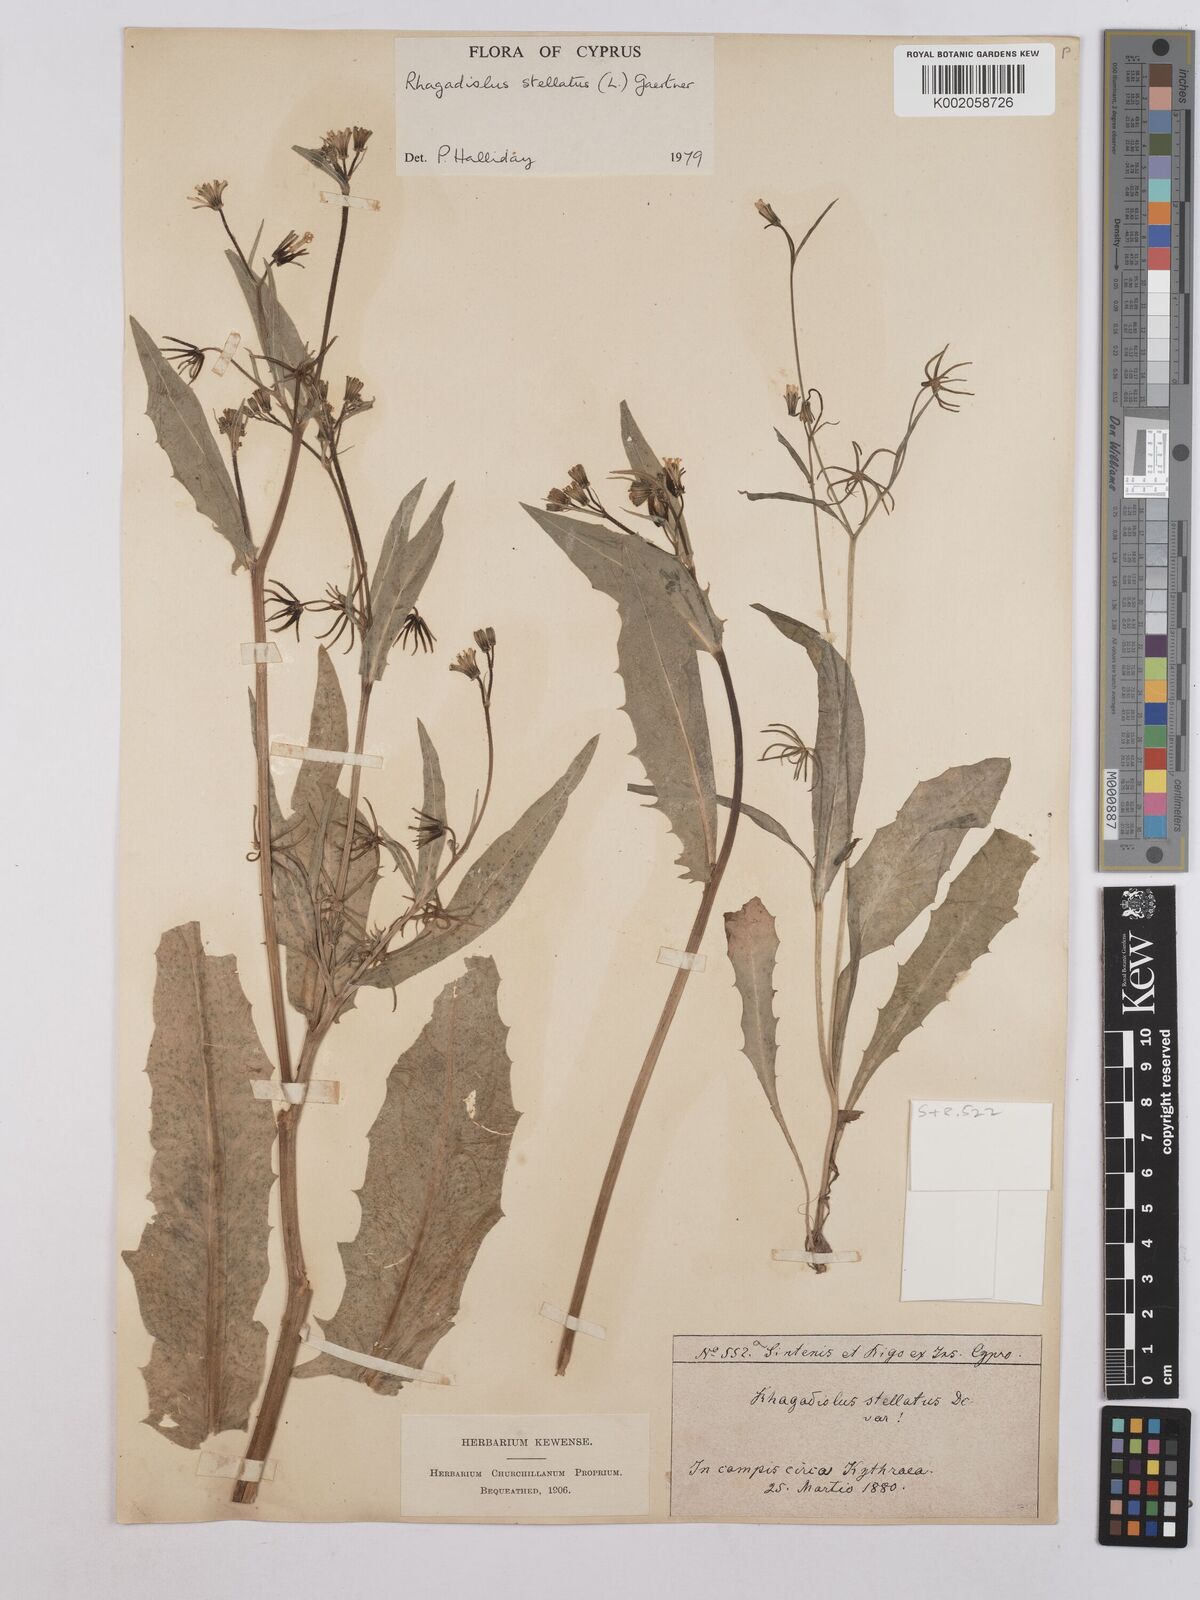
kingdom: Plantae
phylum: Tracheophyta
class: Magnoliopsida
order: Asterales
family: Asteraceae
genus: Rhagadiolus
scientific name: Rhagadiolus stellatus
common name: Star hawkbit
